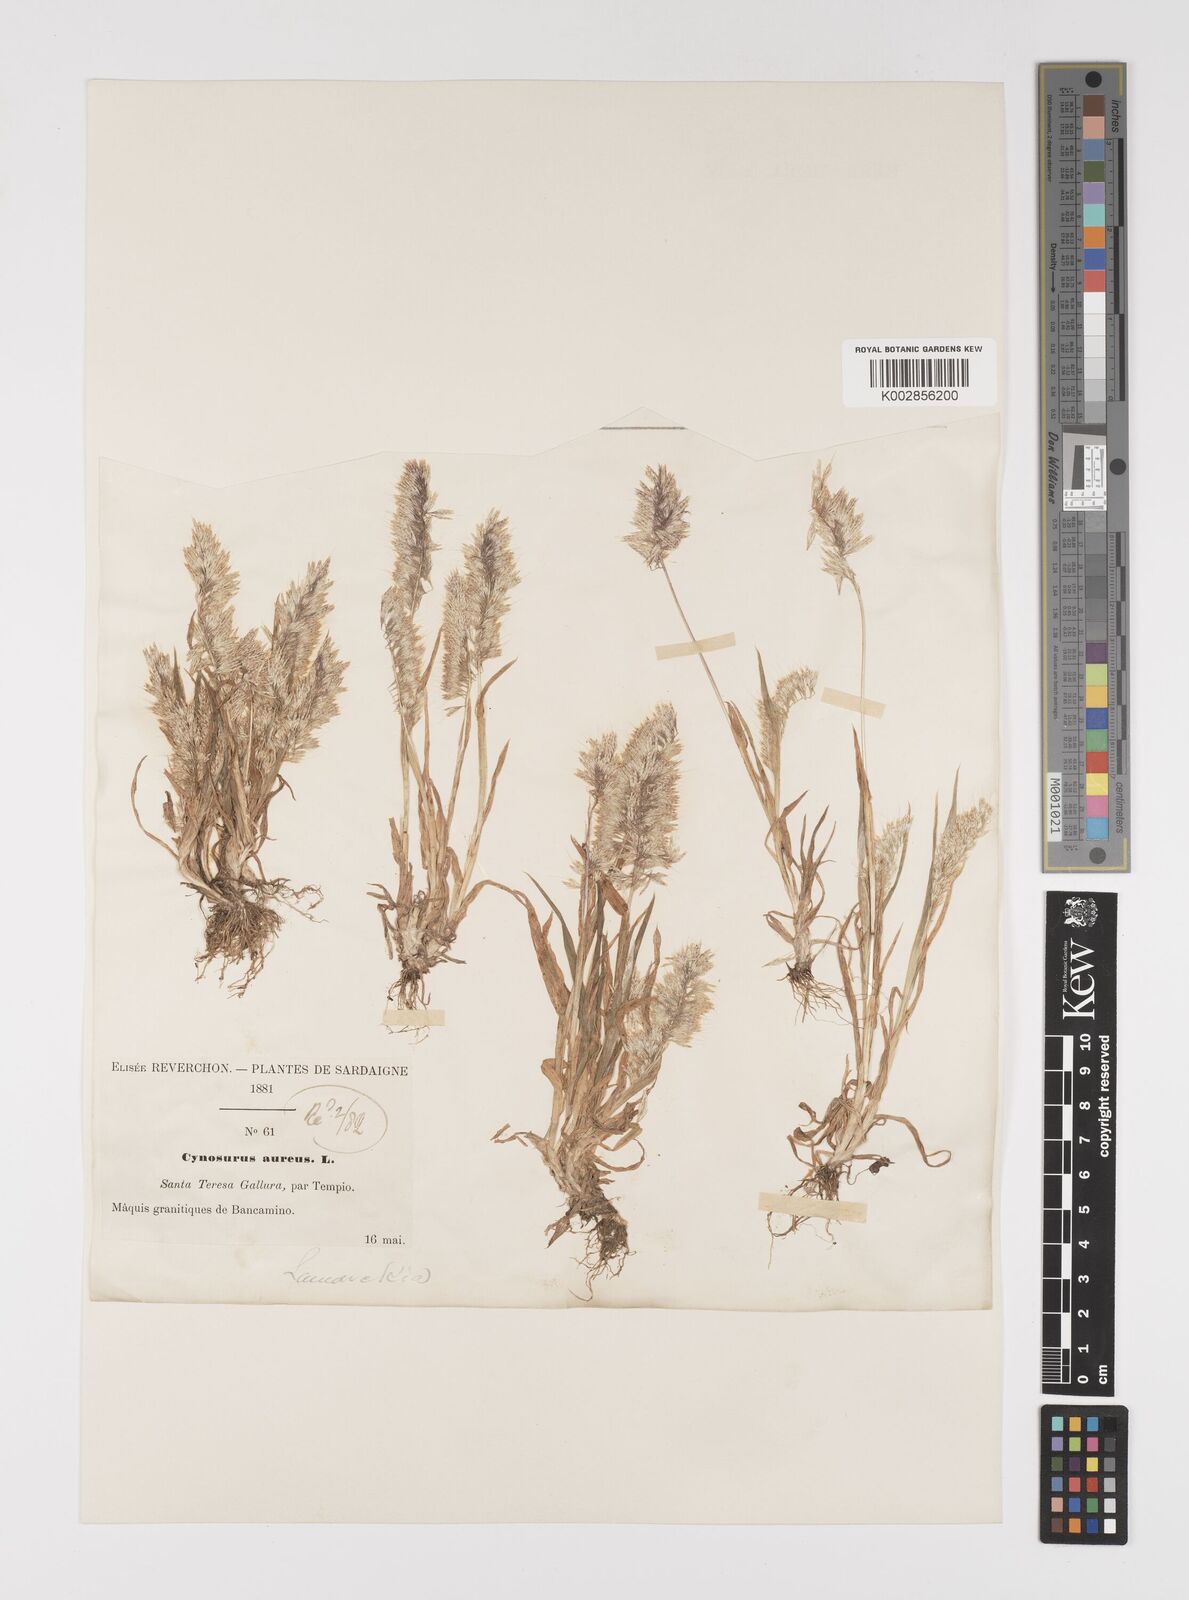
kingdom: Plantae
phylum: Tracheophyta
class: Liliopsida
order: Poales
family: Poaceae
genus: Lamarckia
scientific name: Lamarckia aurea
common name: Golden dog's-tail
